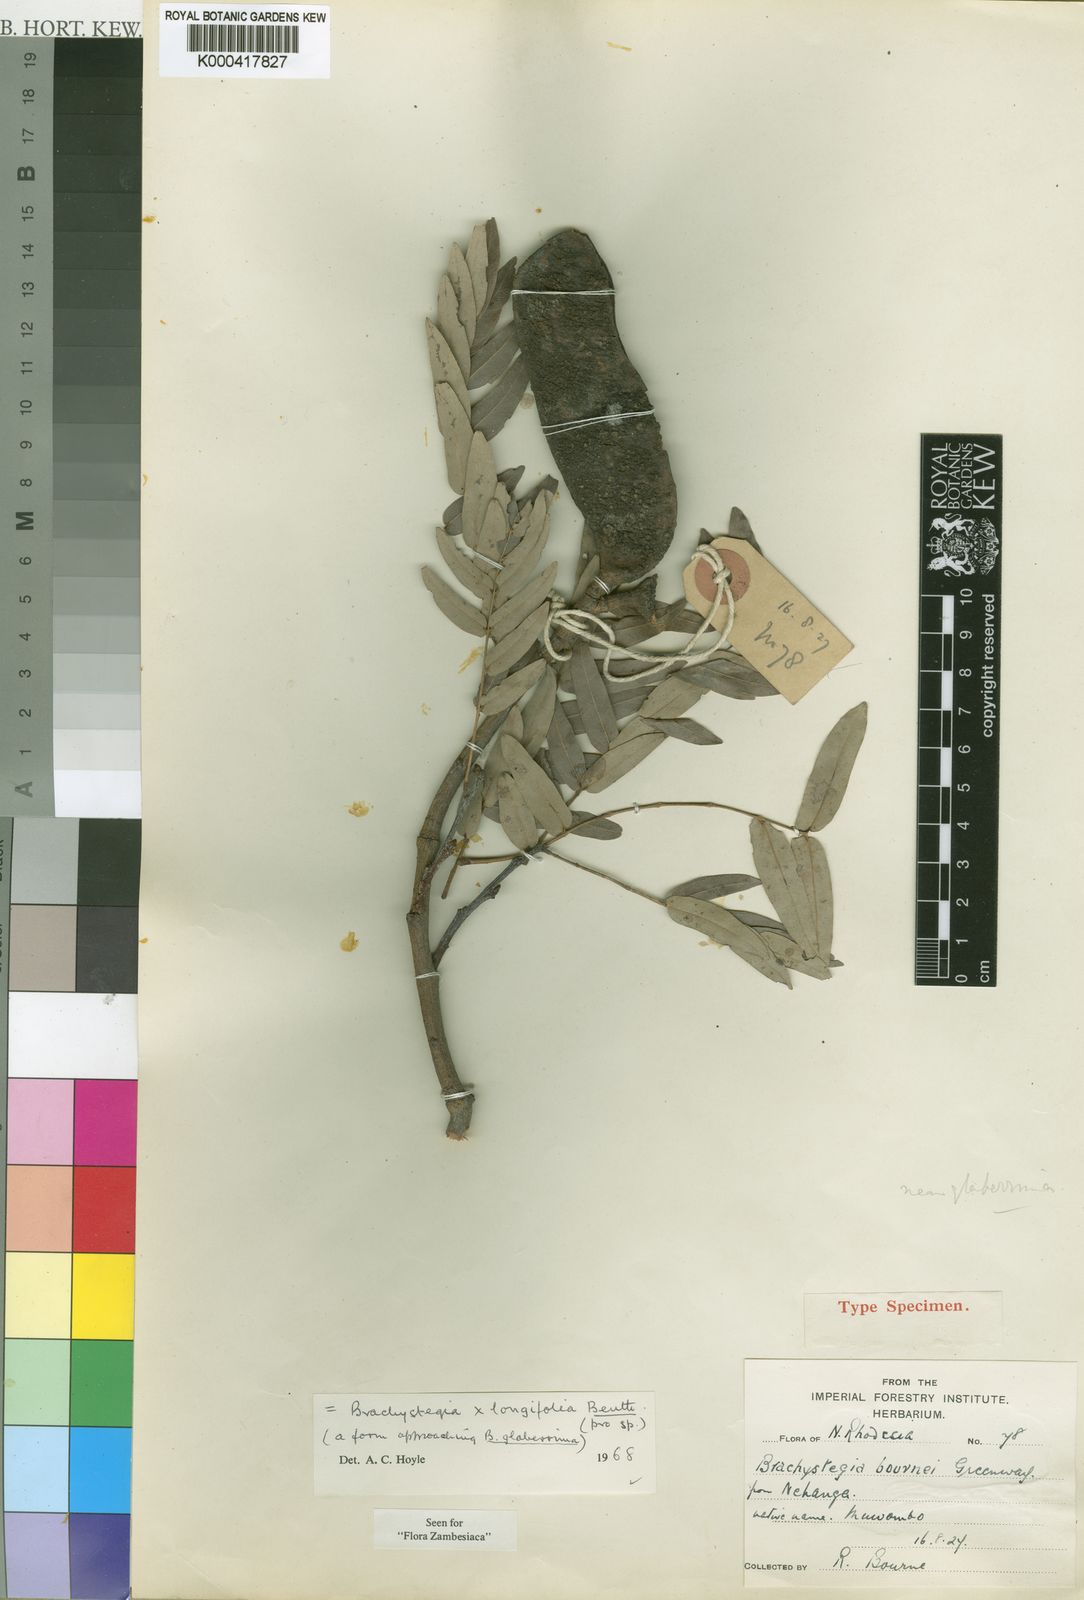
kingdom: Plantae
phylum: Tracheophyta
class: Magnoliopsida
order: Fabales
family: Fabaceae
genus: Brachystegia
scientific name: Brachystegia longifolia
